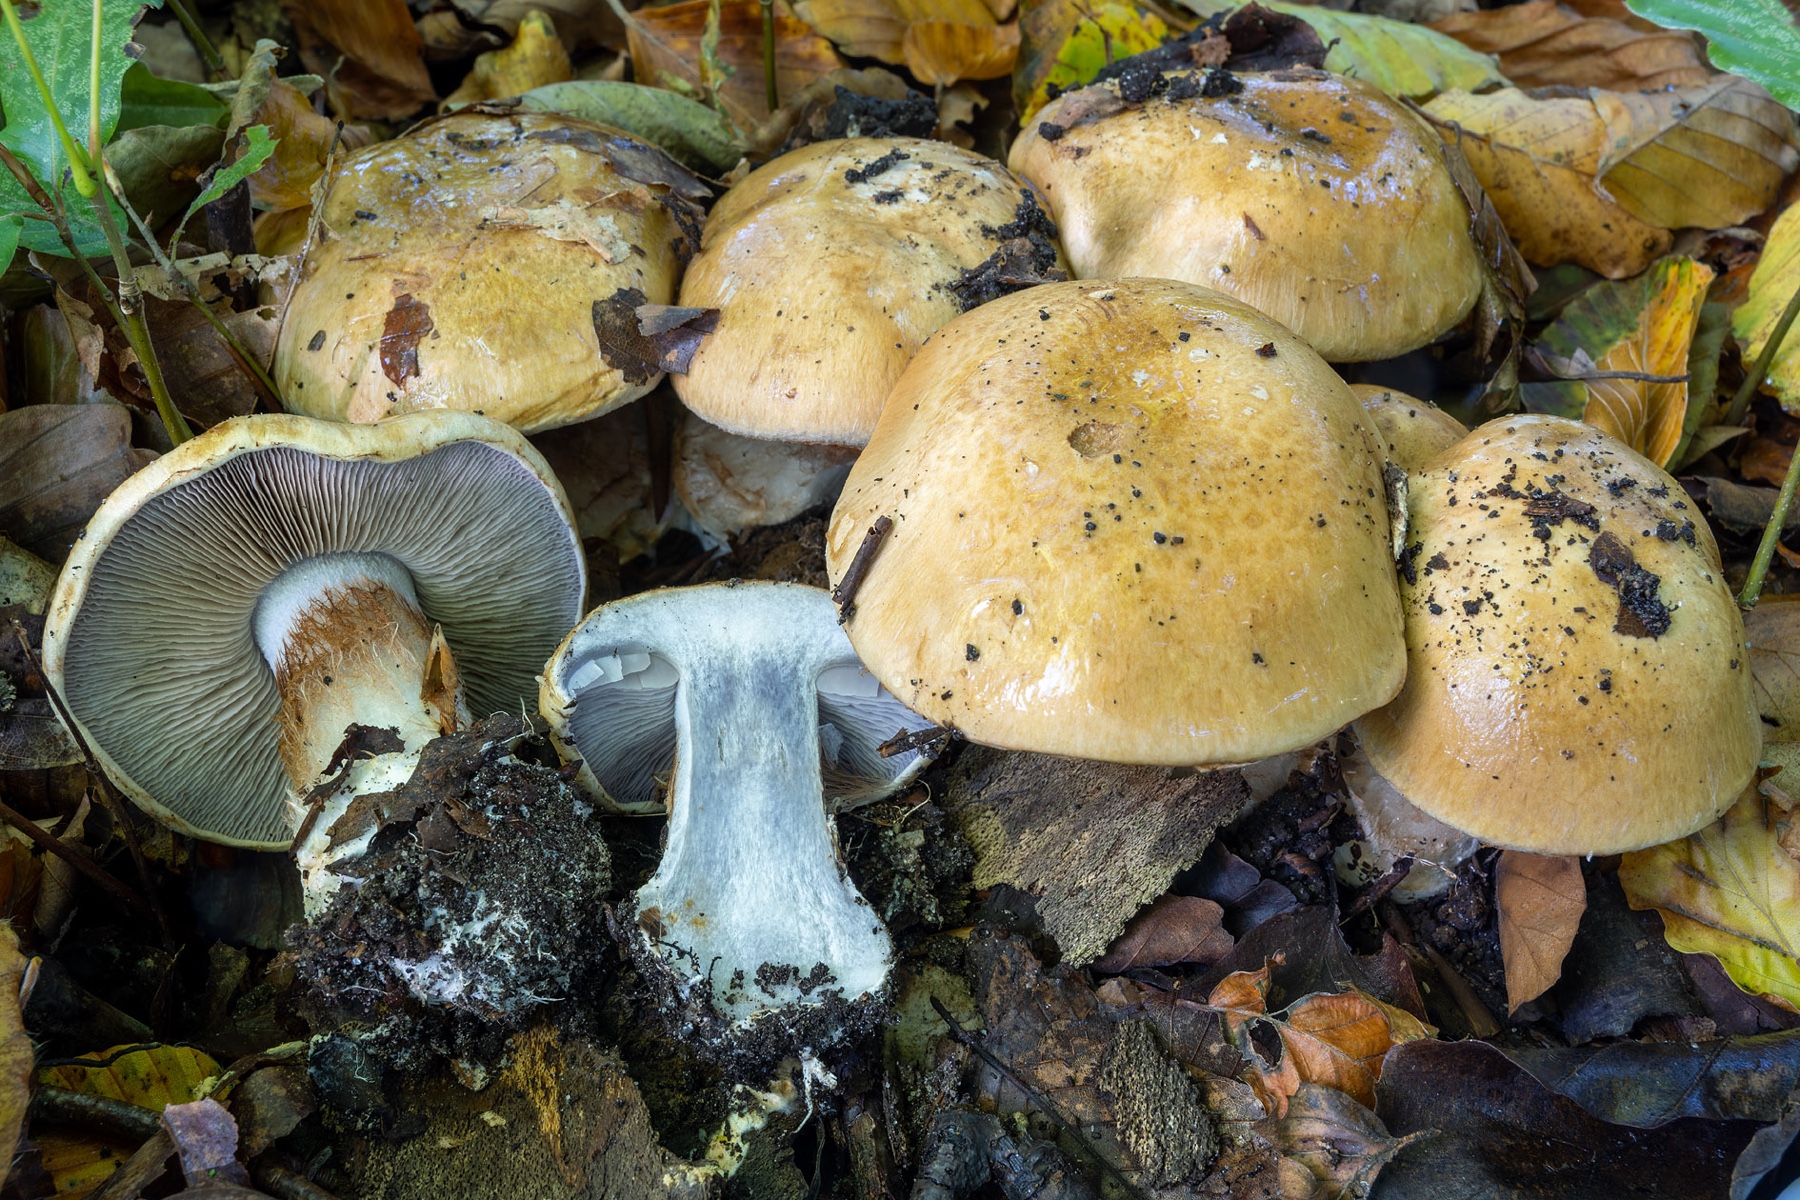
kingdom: Fungi
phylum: Basidiomycota
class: Agaricomycetes
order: Agaricales
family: Cortinariaceae
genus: Cortinarius
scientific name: Cortinarius anserinus
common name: bøge-slørhat
